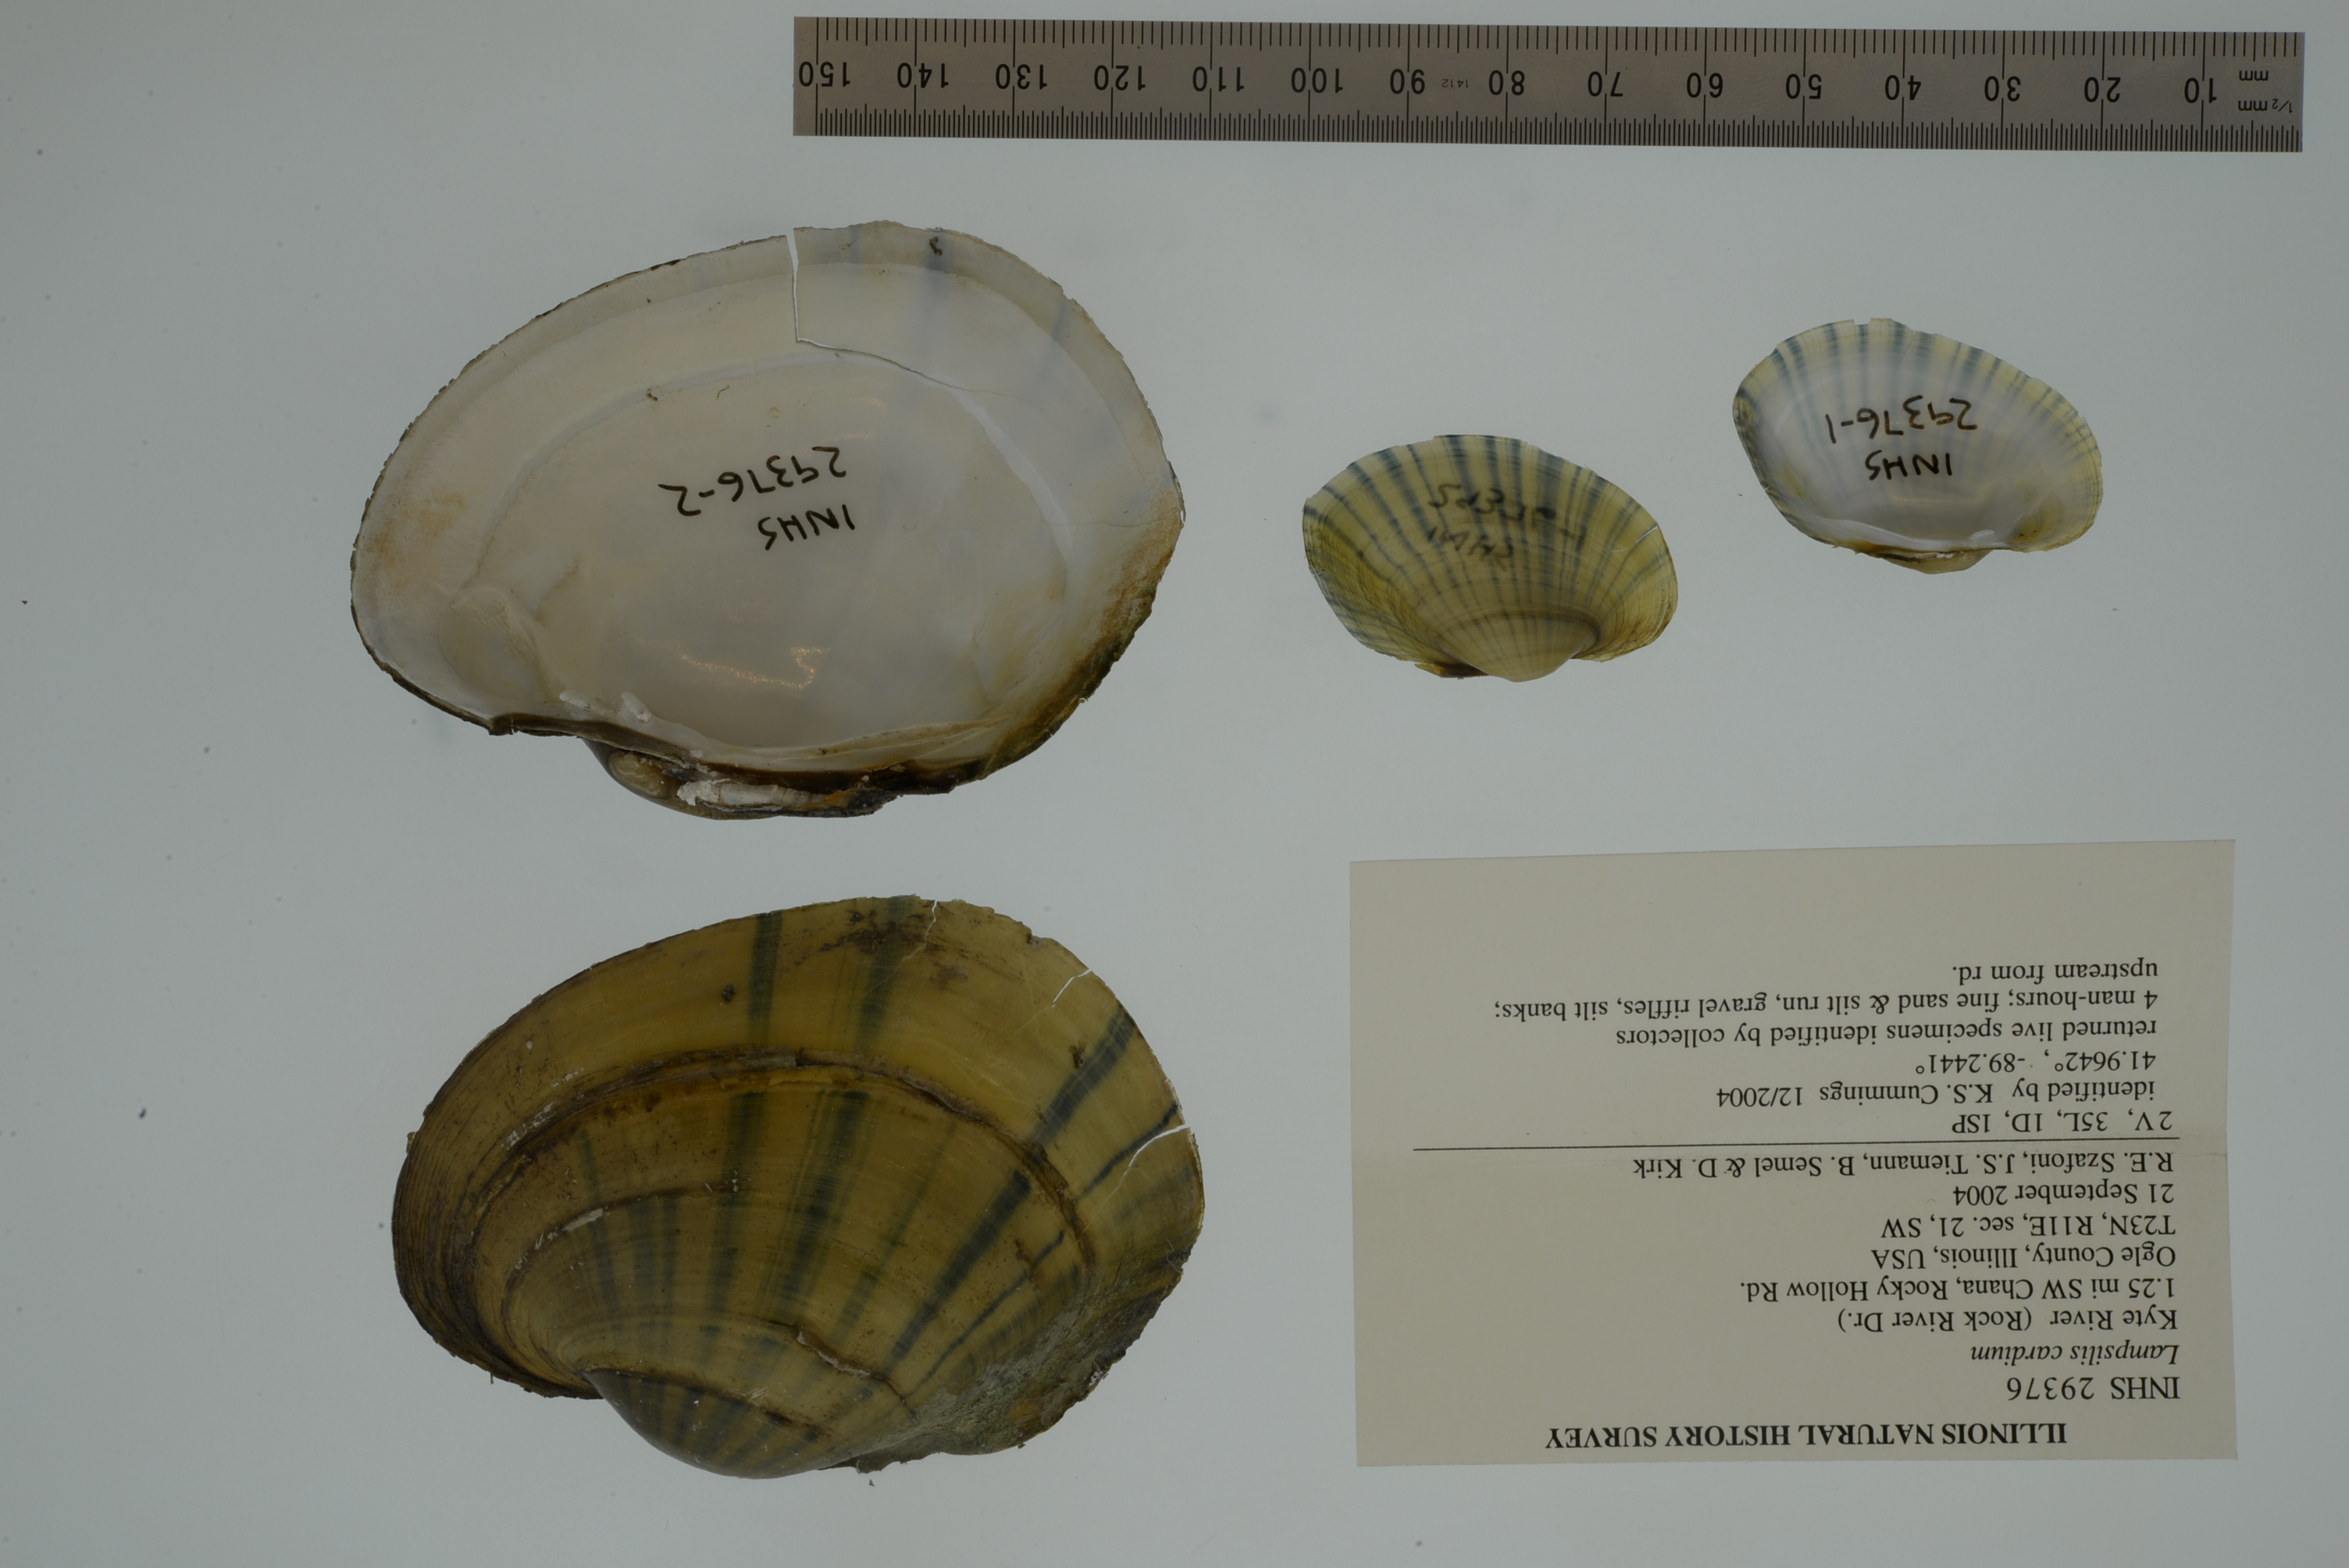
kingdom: Animalia
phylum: Mollusca
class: Bivalvia
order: Unionida
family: Unionidae
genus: Lampsilis
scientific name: Lampsilis cardium
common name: Plain pocketbook
